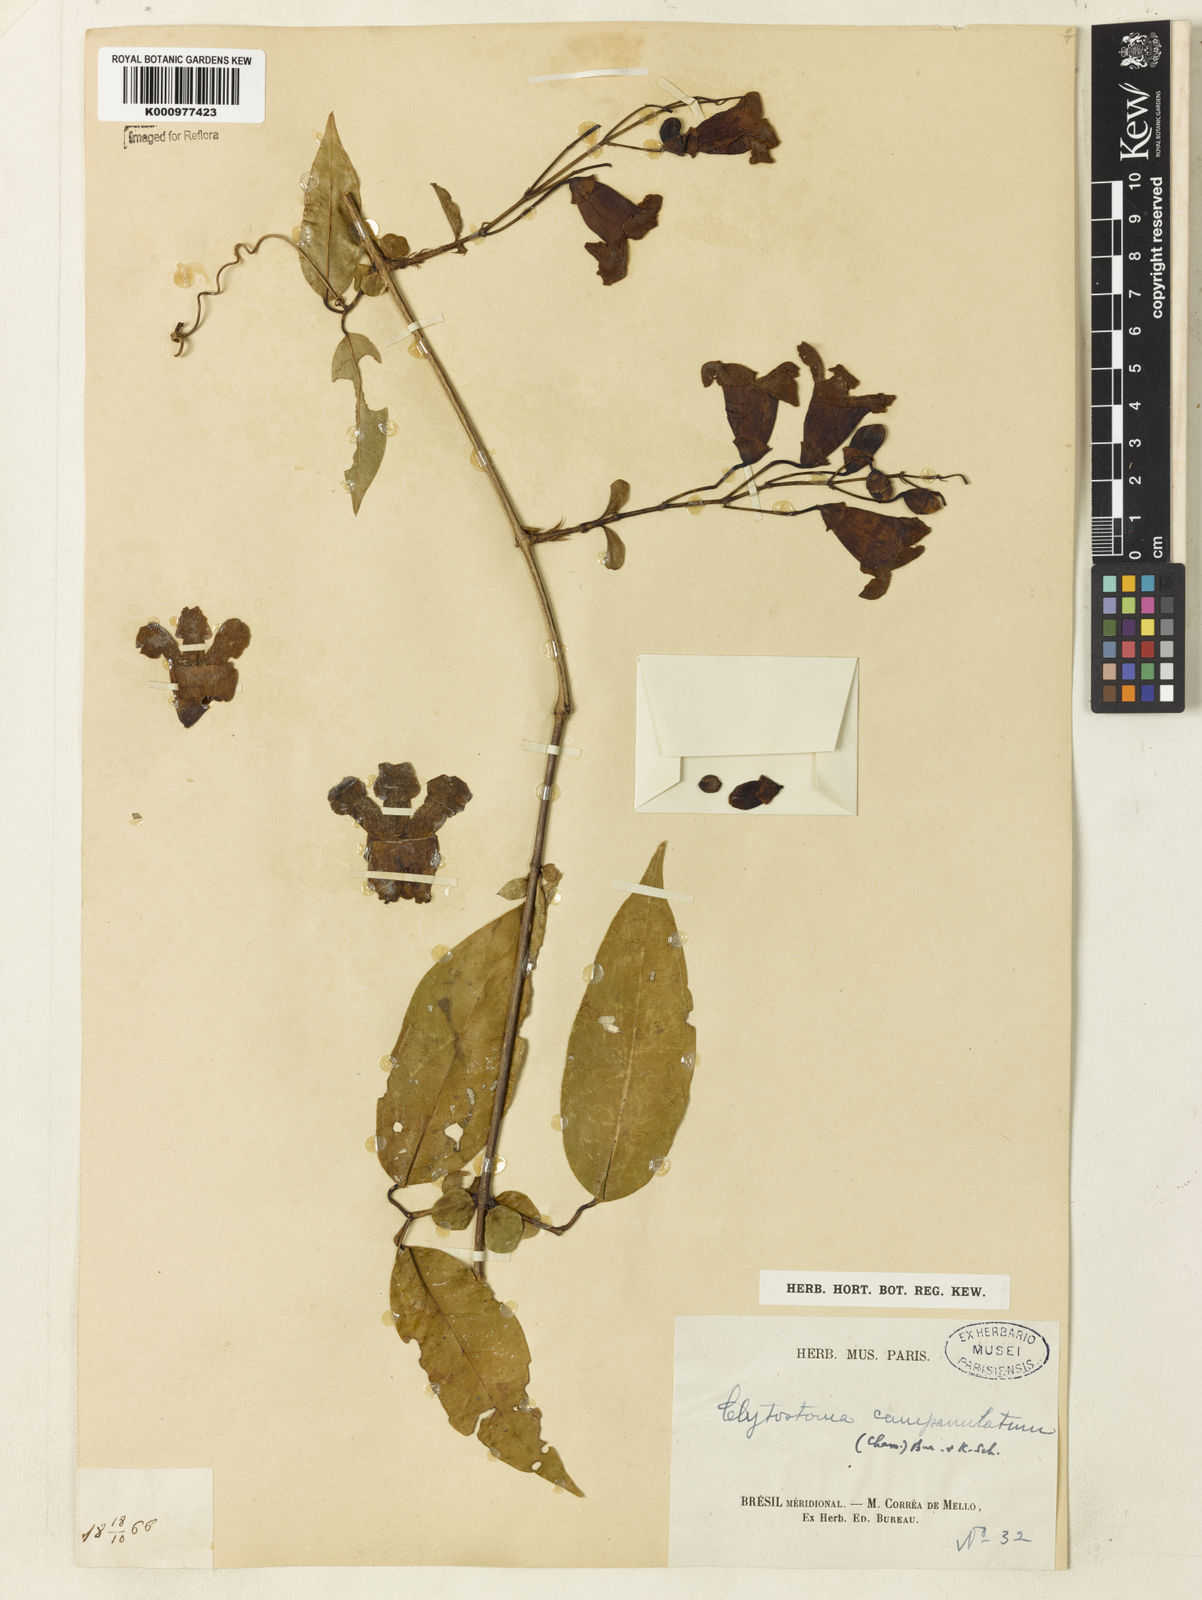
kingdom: Plantae
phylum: Tracheophyta
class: Magnoliopsida
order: Lamiales
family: Bignoniaceae
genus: Bignonia
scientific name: Bignonia campanulata
